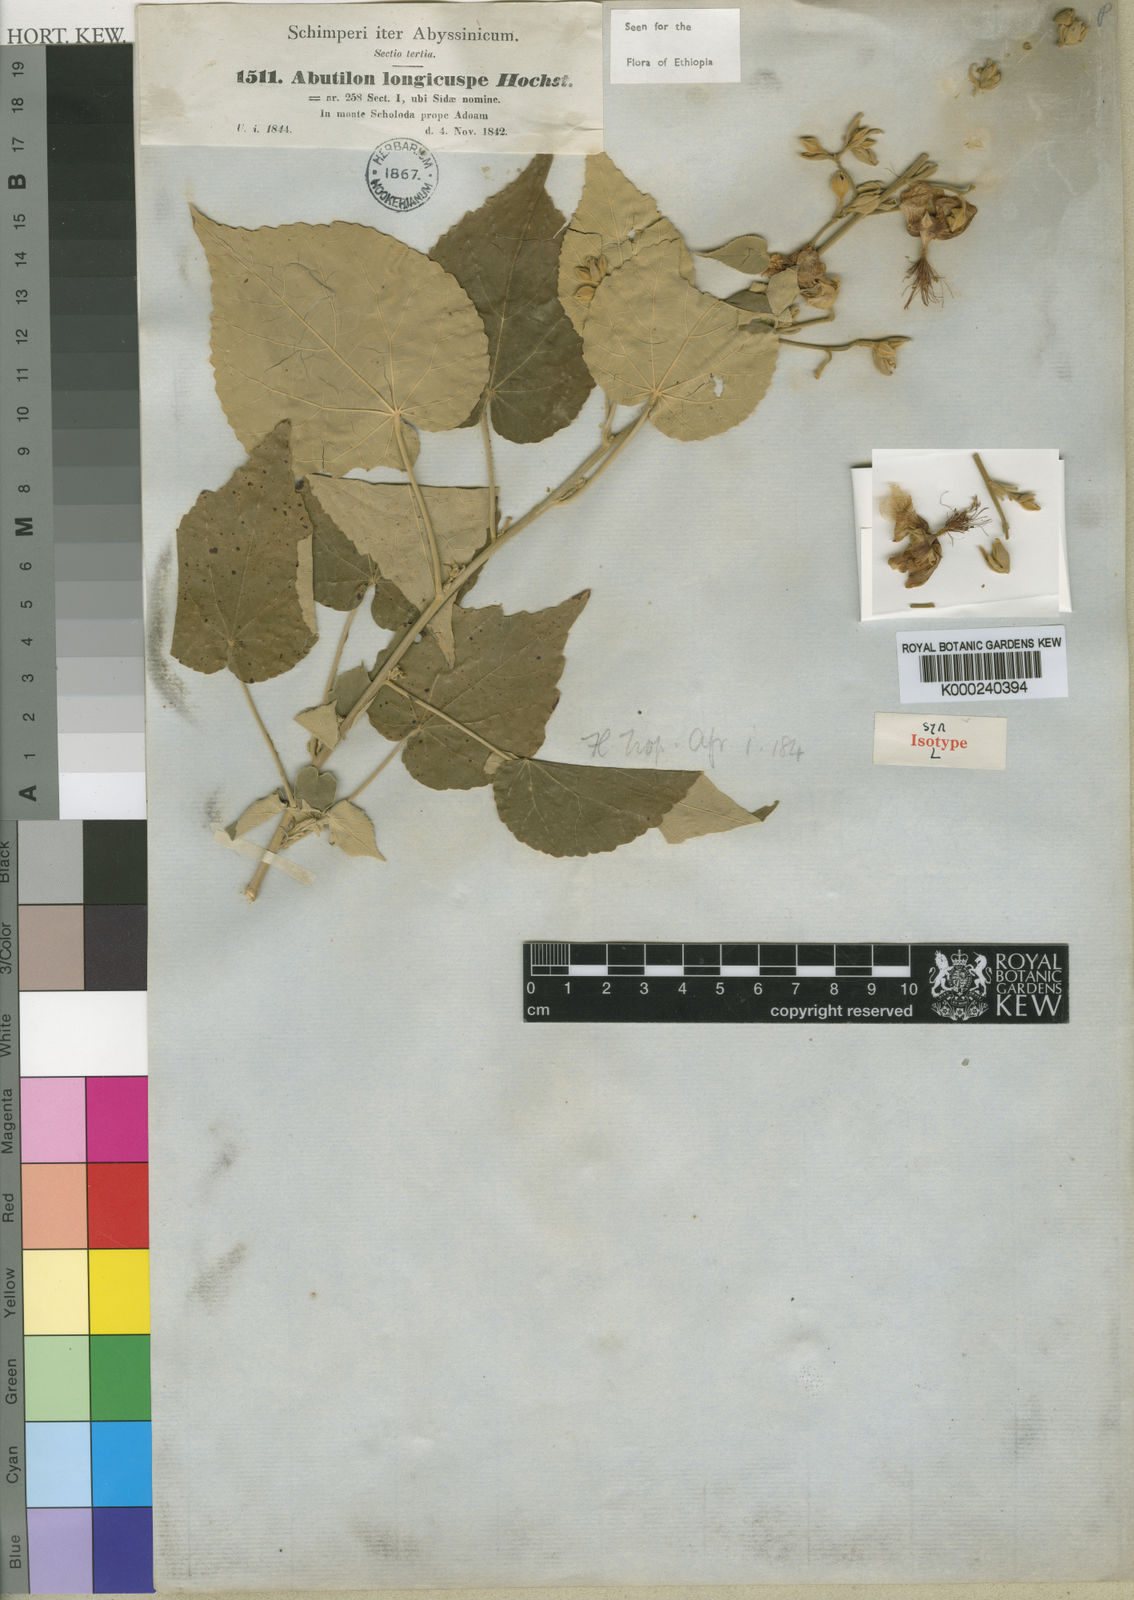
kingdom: Plantae
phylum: Tracheophyta
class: Magnoliopsida
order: Malvales
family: Malvaceae
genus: Abutilon
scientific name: Abutilon longicuspe
